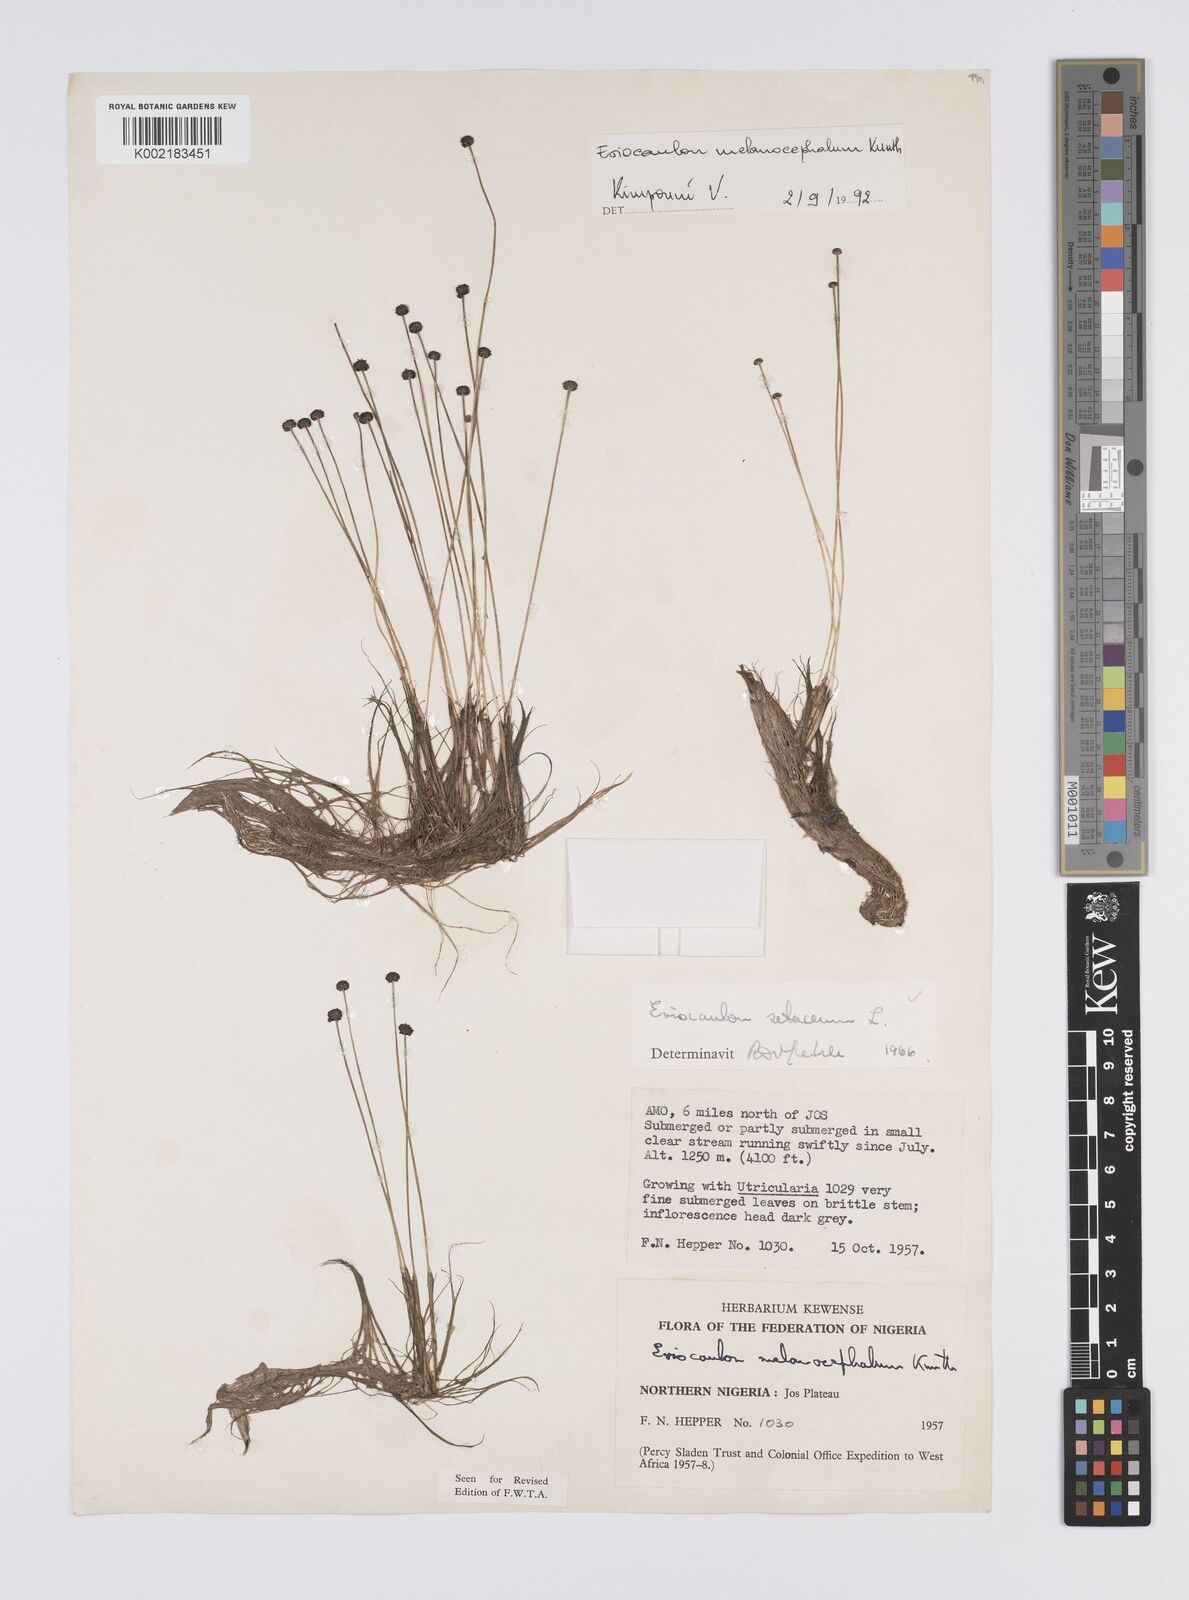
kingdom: Plantae
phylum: Tracheophyta
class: Liliopsida
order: Poales
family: Eriocaulaceae
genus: Eriocaulon
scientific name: Eriocaulon setaceum
